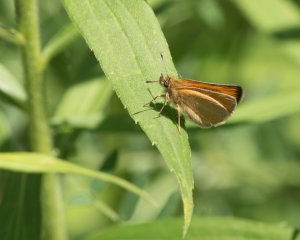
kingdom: Animalia
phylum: Arthropoda
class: Insecta
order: Lepidoptera
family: Hesperiidae
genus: Thymelicus
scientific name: Thymelicus lineola
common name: European Skipper
